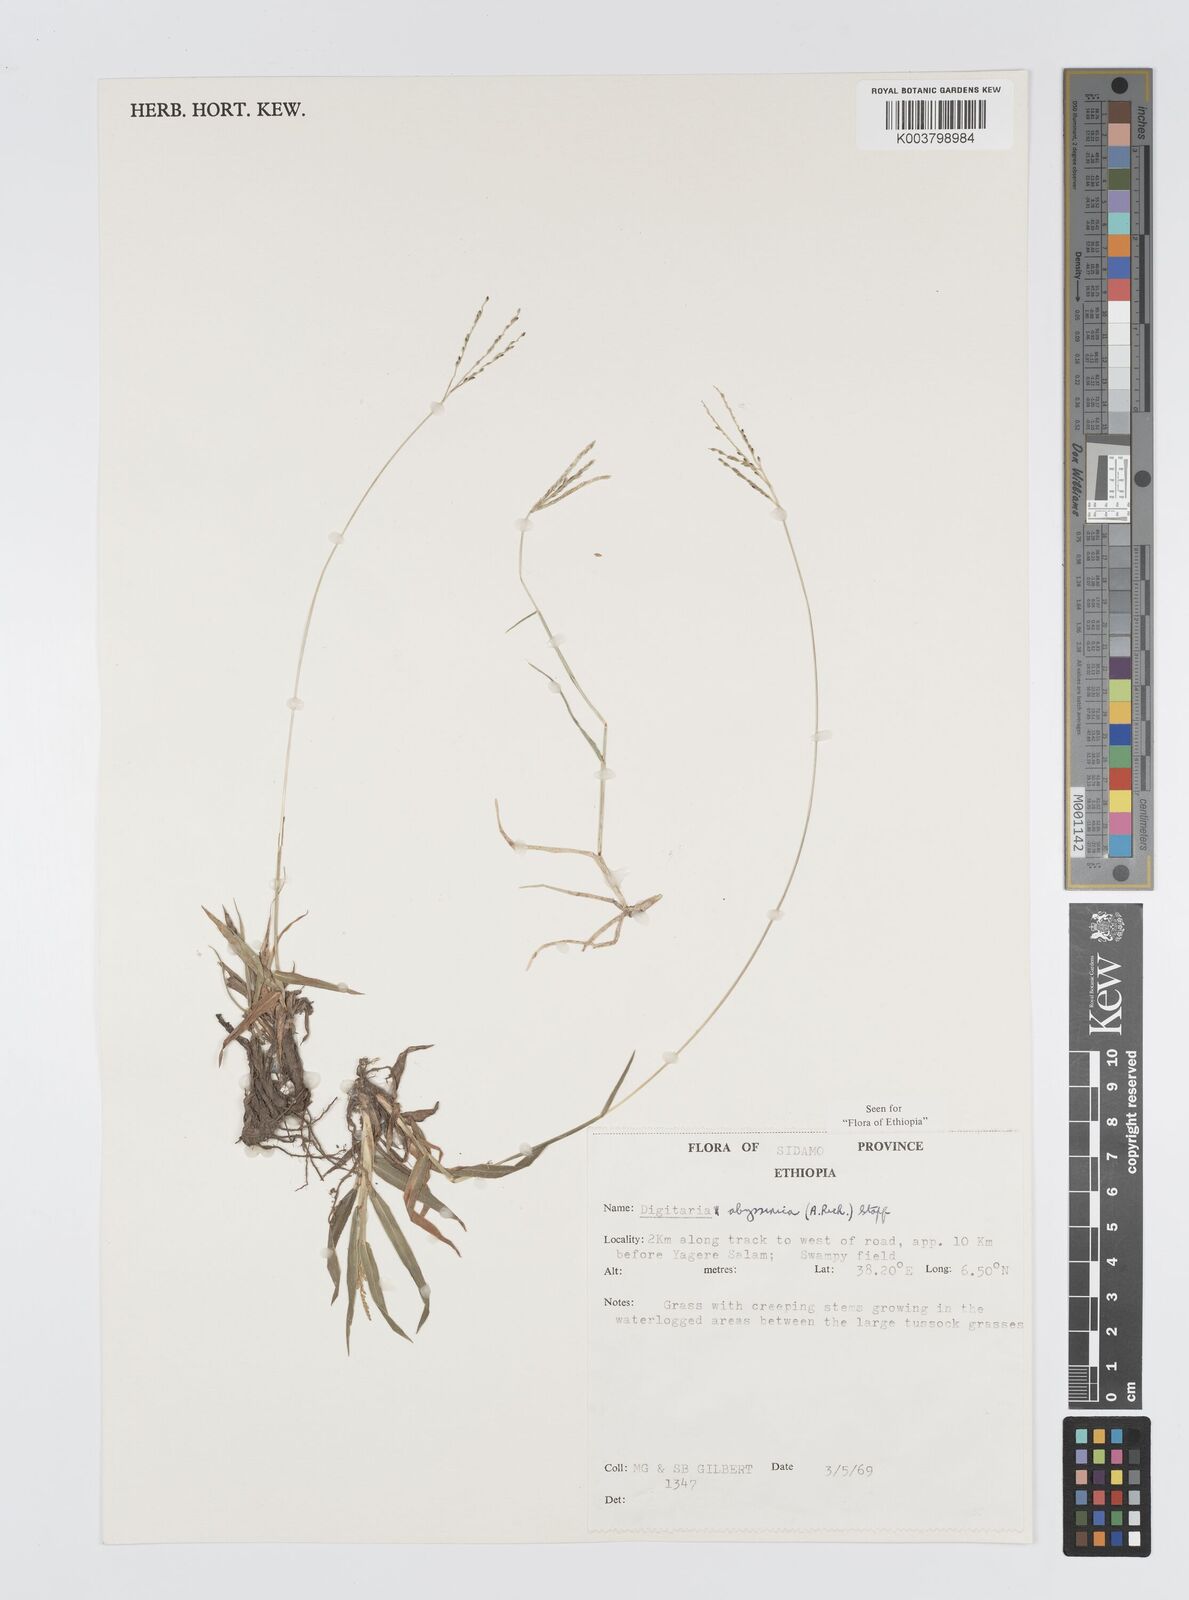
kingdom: Plantae
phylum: Tracheophyta
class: Liliopsida
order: Poales
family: Poaceae
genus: Digitaria
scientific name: Digitaria abyssinica
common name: African couchgrass
